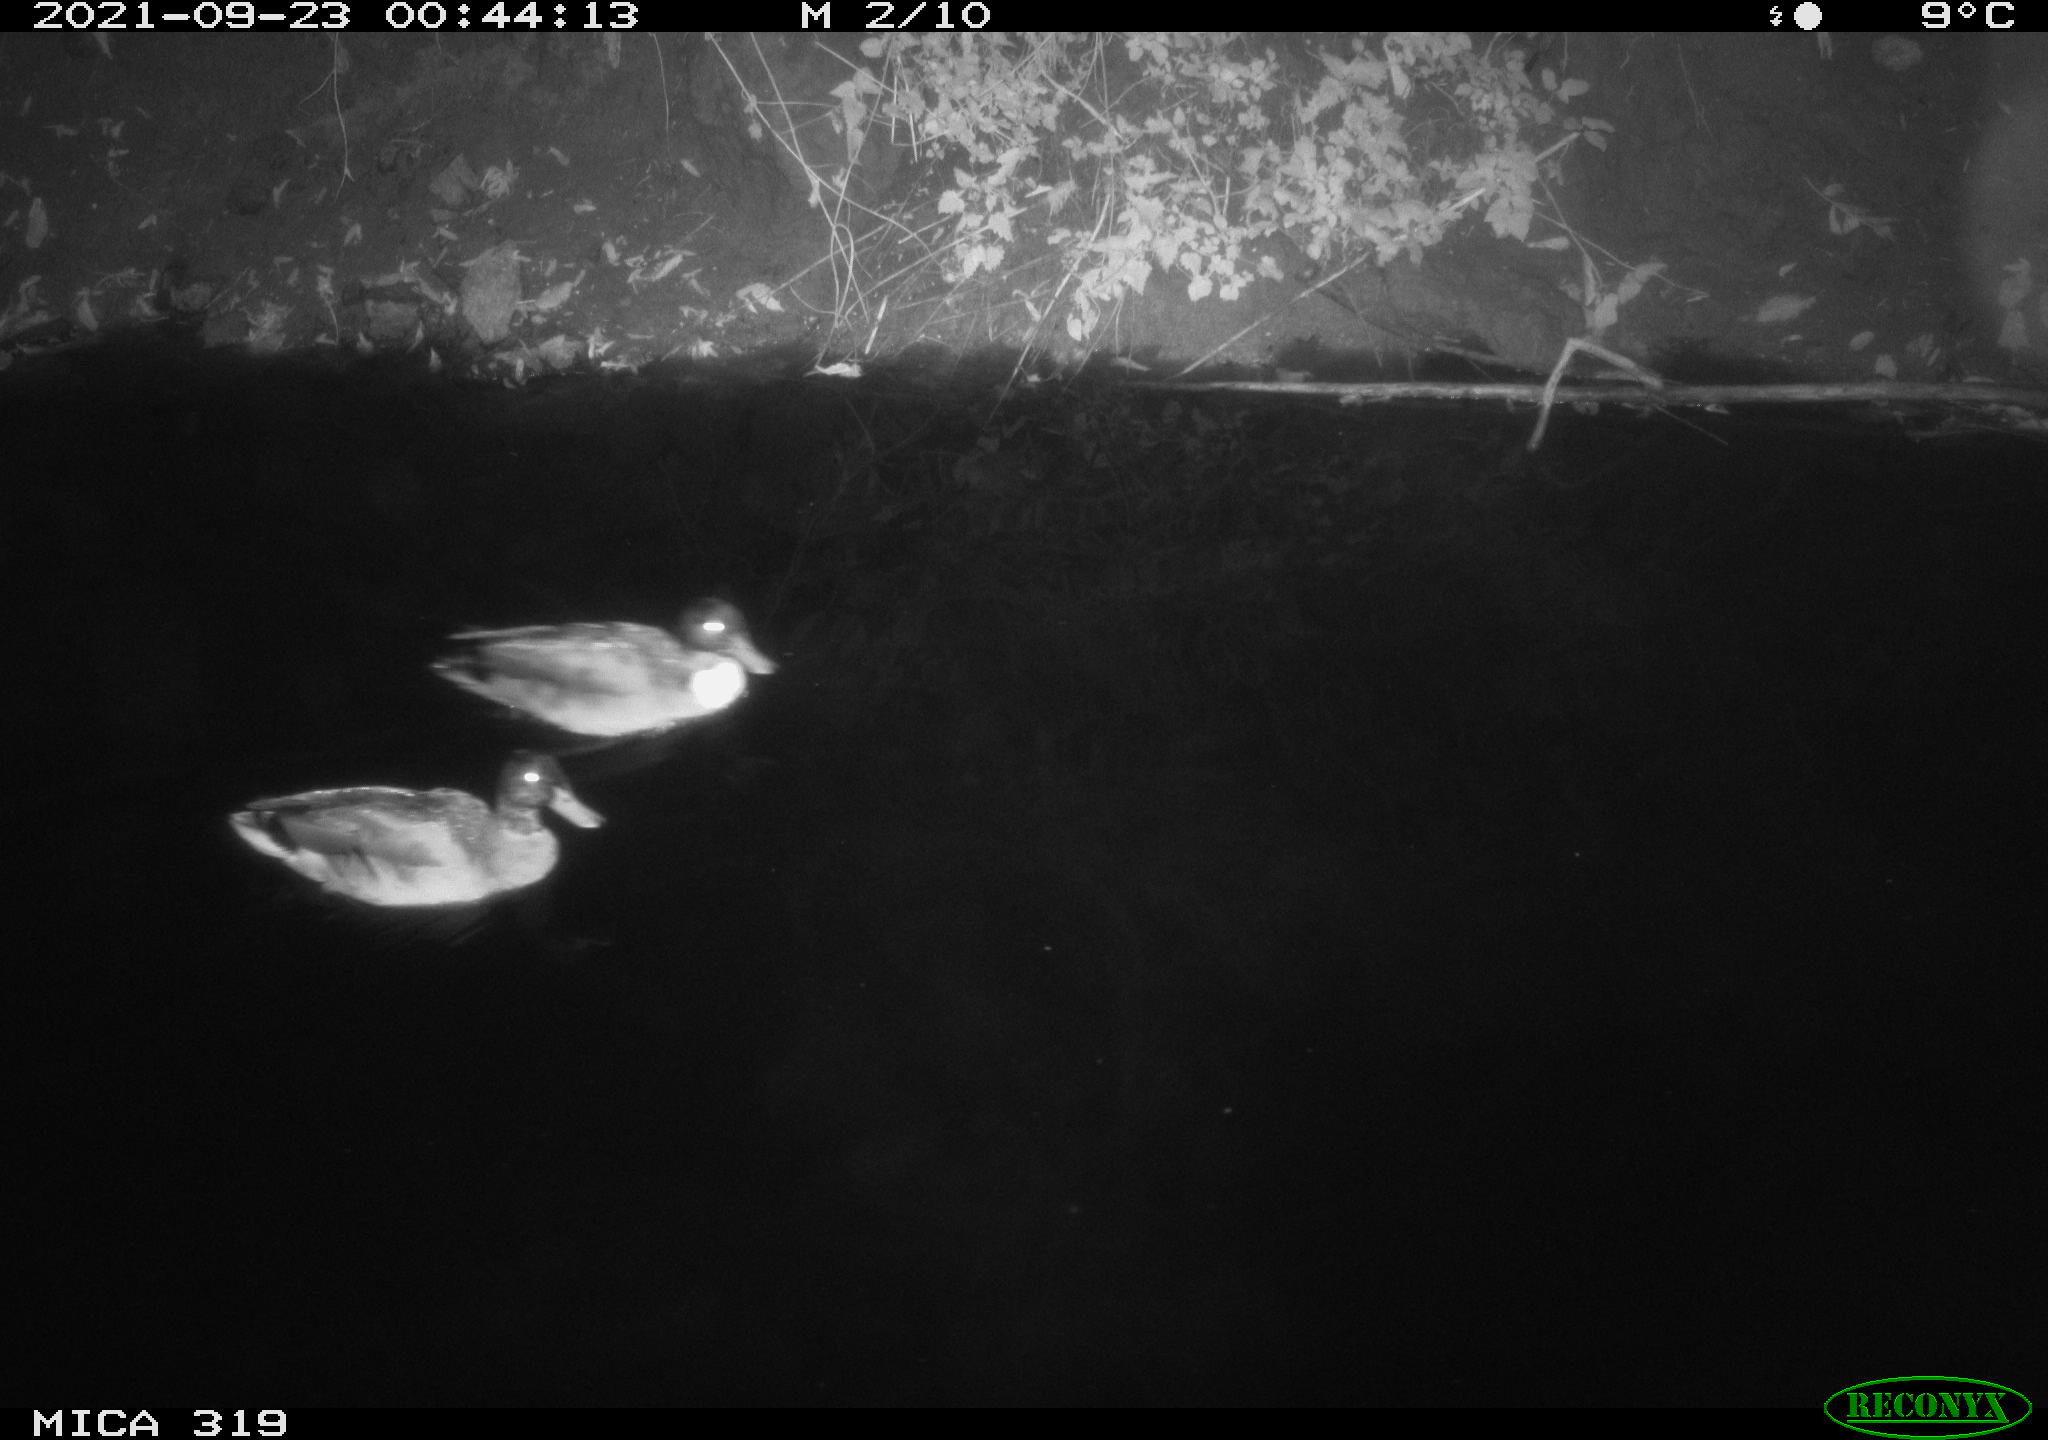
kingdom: Animalia
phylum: Chordata
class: Aves
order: Anseriformes
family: Anatidae
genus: Anas
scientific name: Anas platyrhynchos
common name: Mallard
